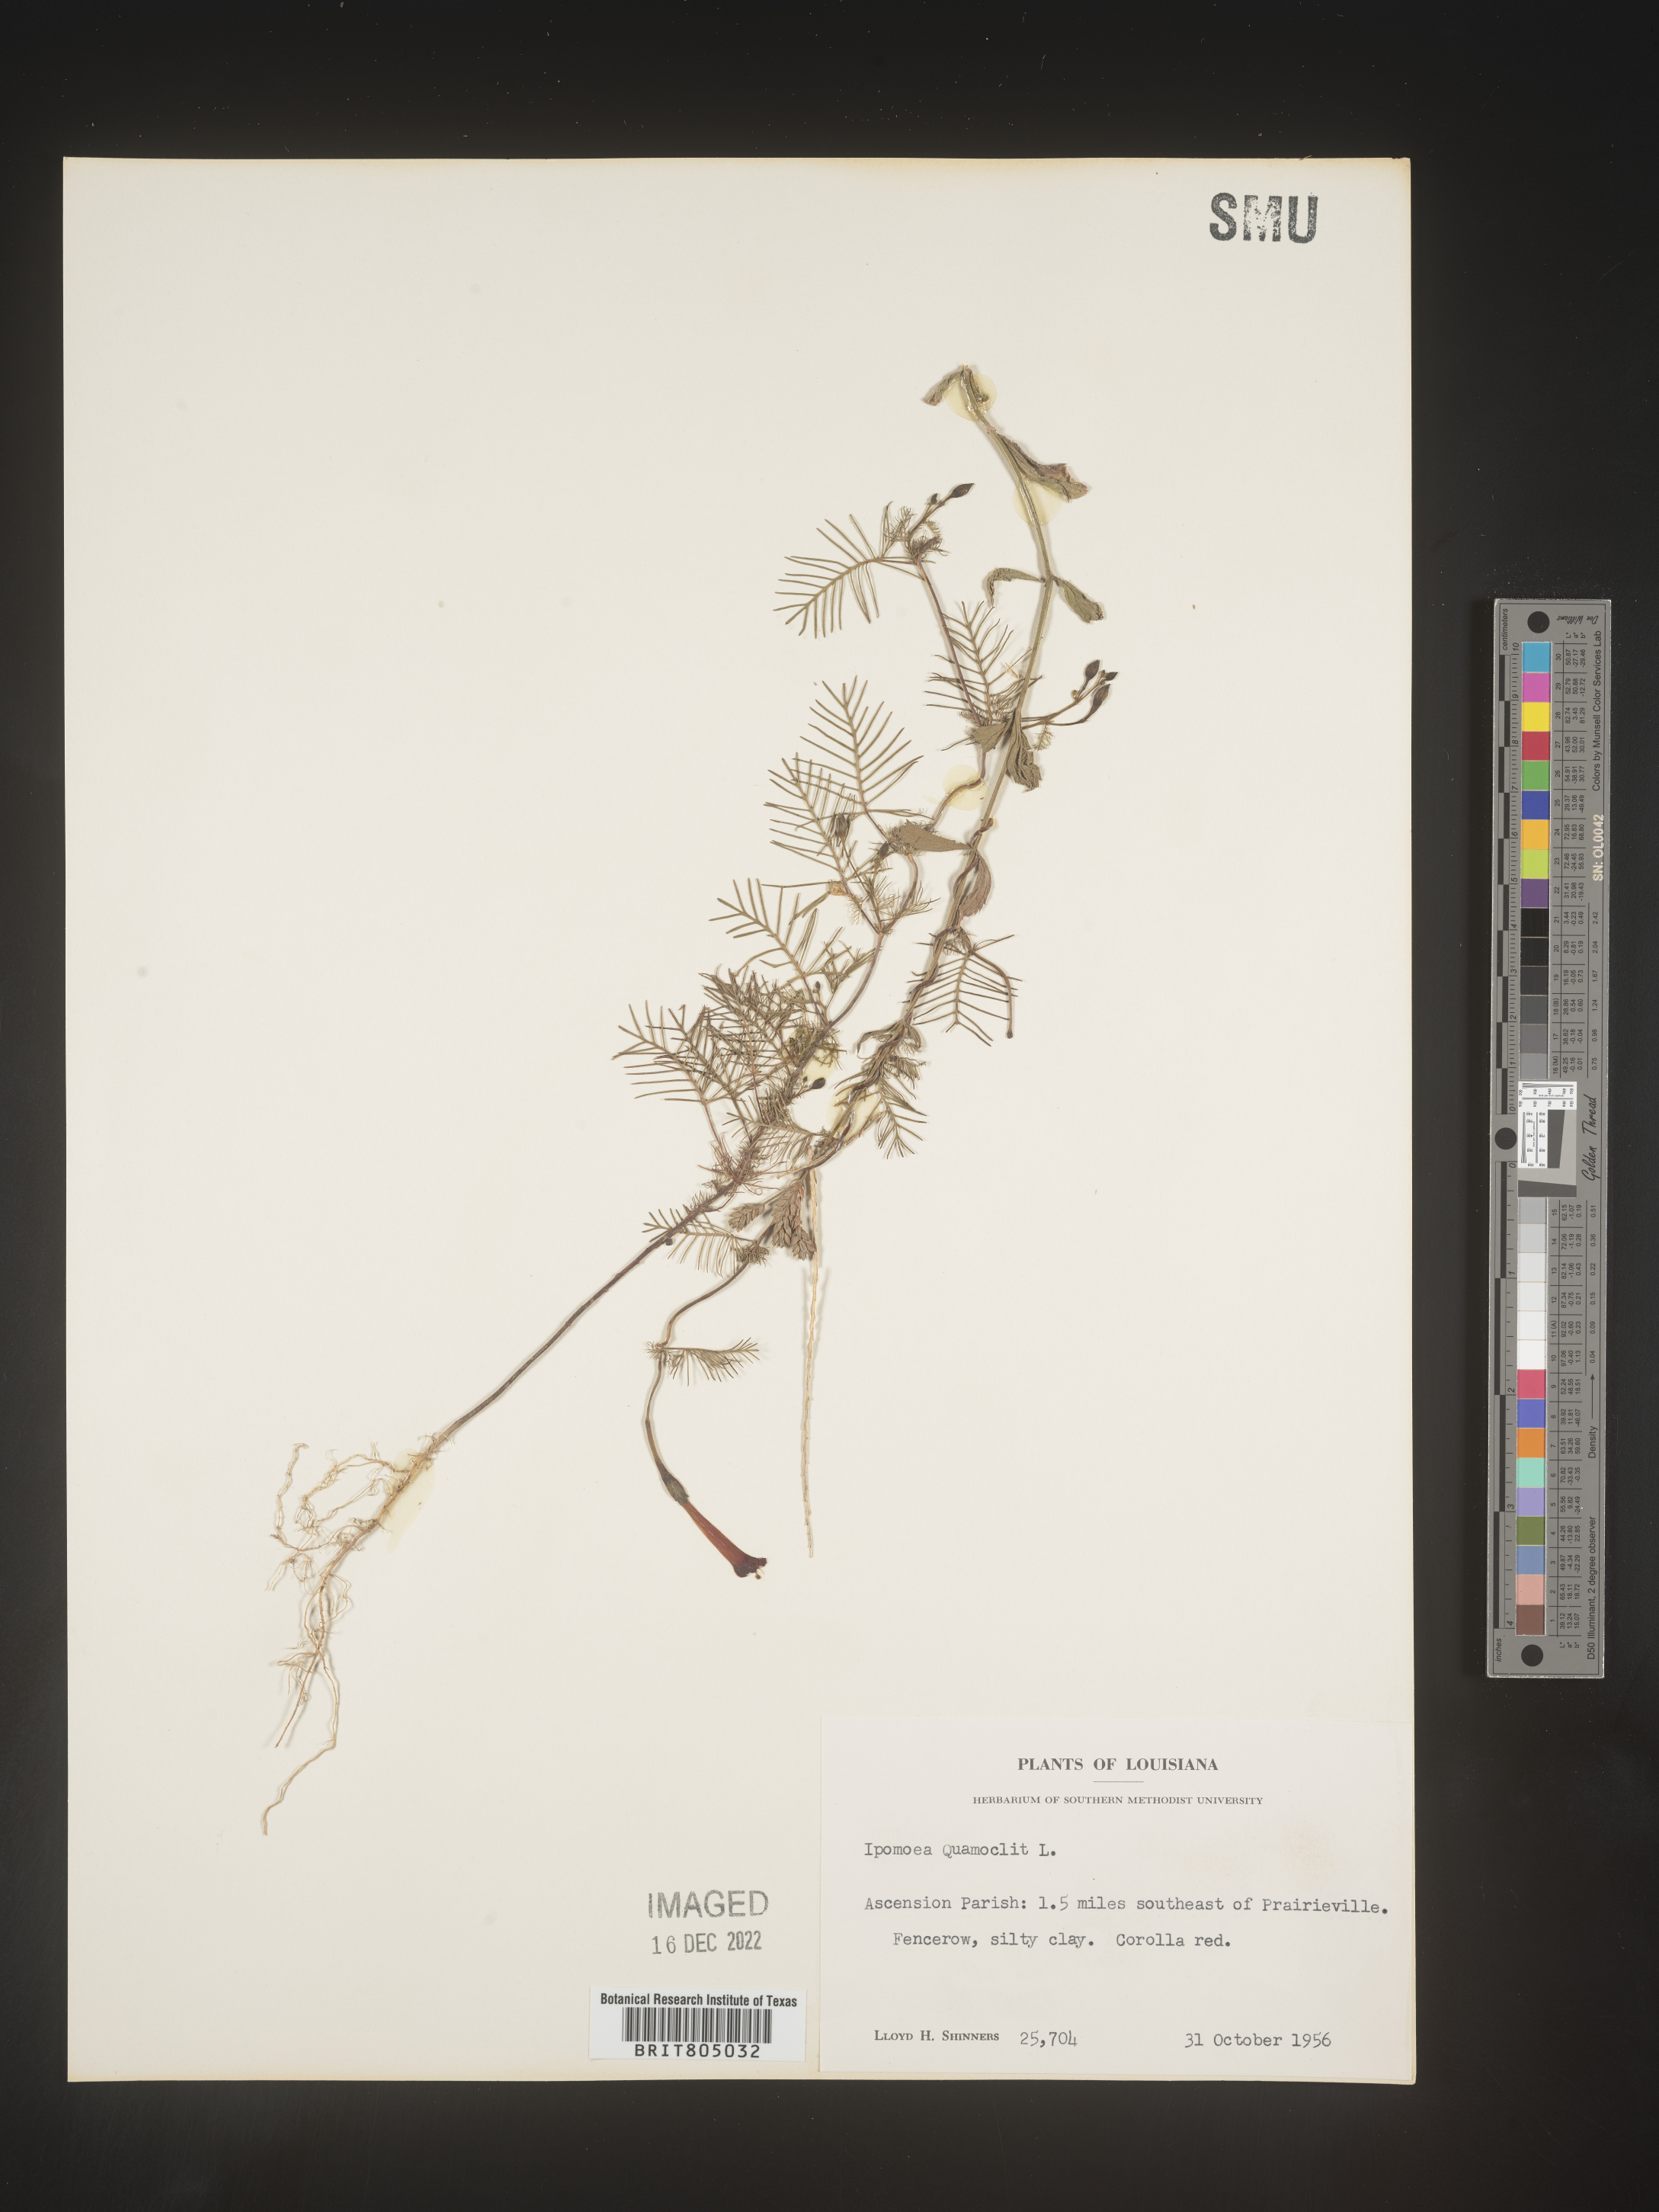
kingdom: Plantae
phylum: Tracheophyta
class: Magnoliopsida
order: Solanales
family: Convolvulaceae
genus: Ipomoea
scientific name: Ipomoea quamoclit
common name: Cypress vine
